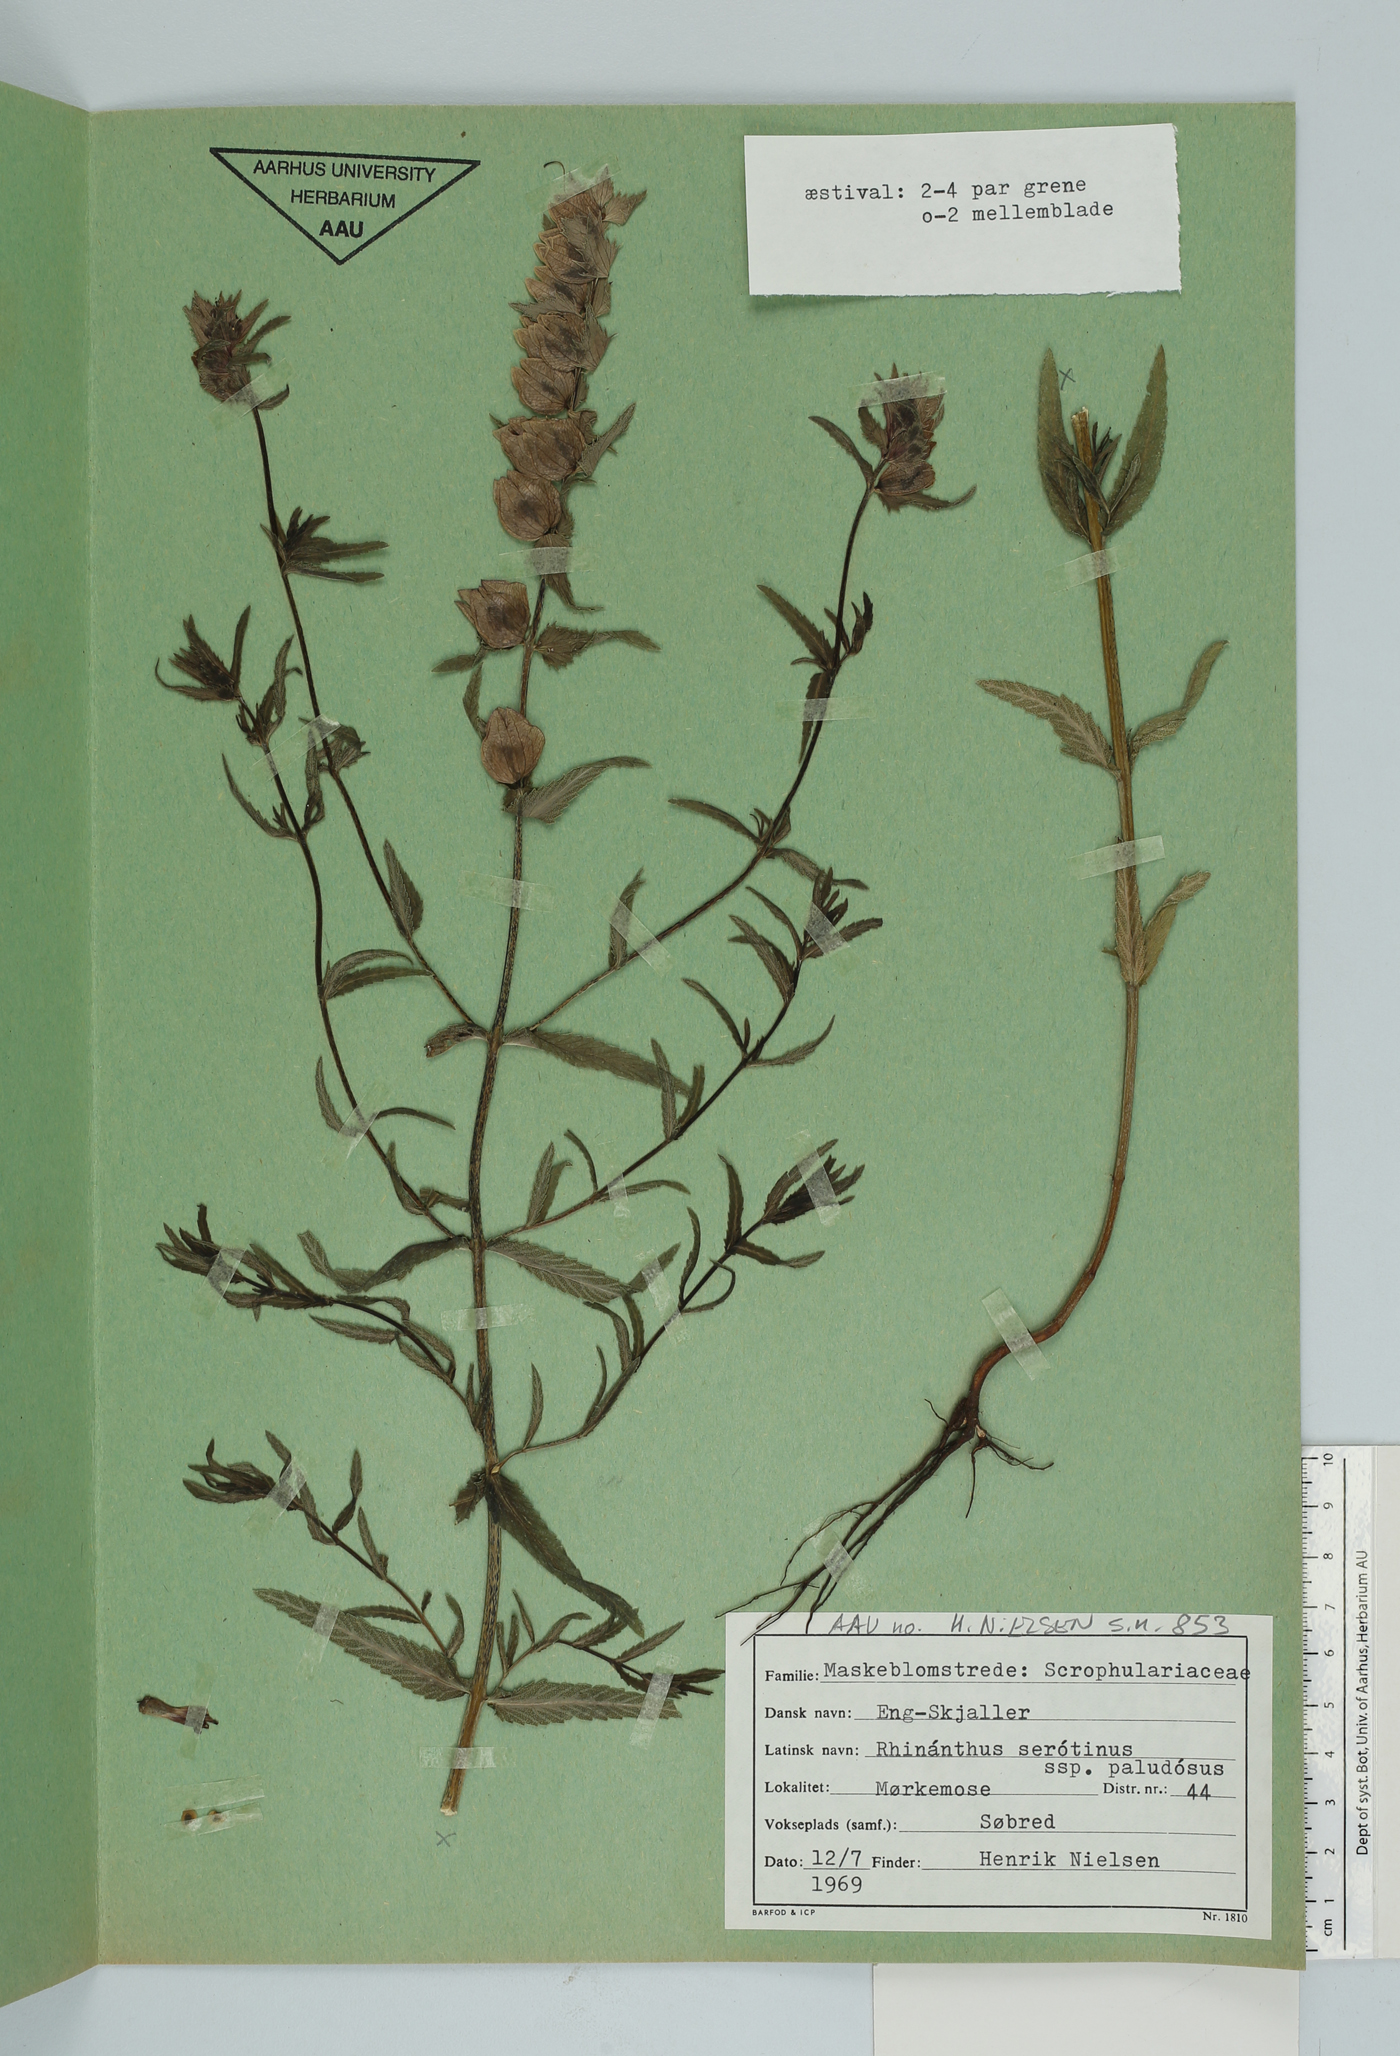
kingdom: Plantae
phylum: Tracheophyta
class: Magnoliopsida
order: Lamiales
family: Orobanchaceae
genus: Rhinanthus
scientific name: Rhinanthus serotinus
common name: Late-flowering yellow rattle
